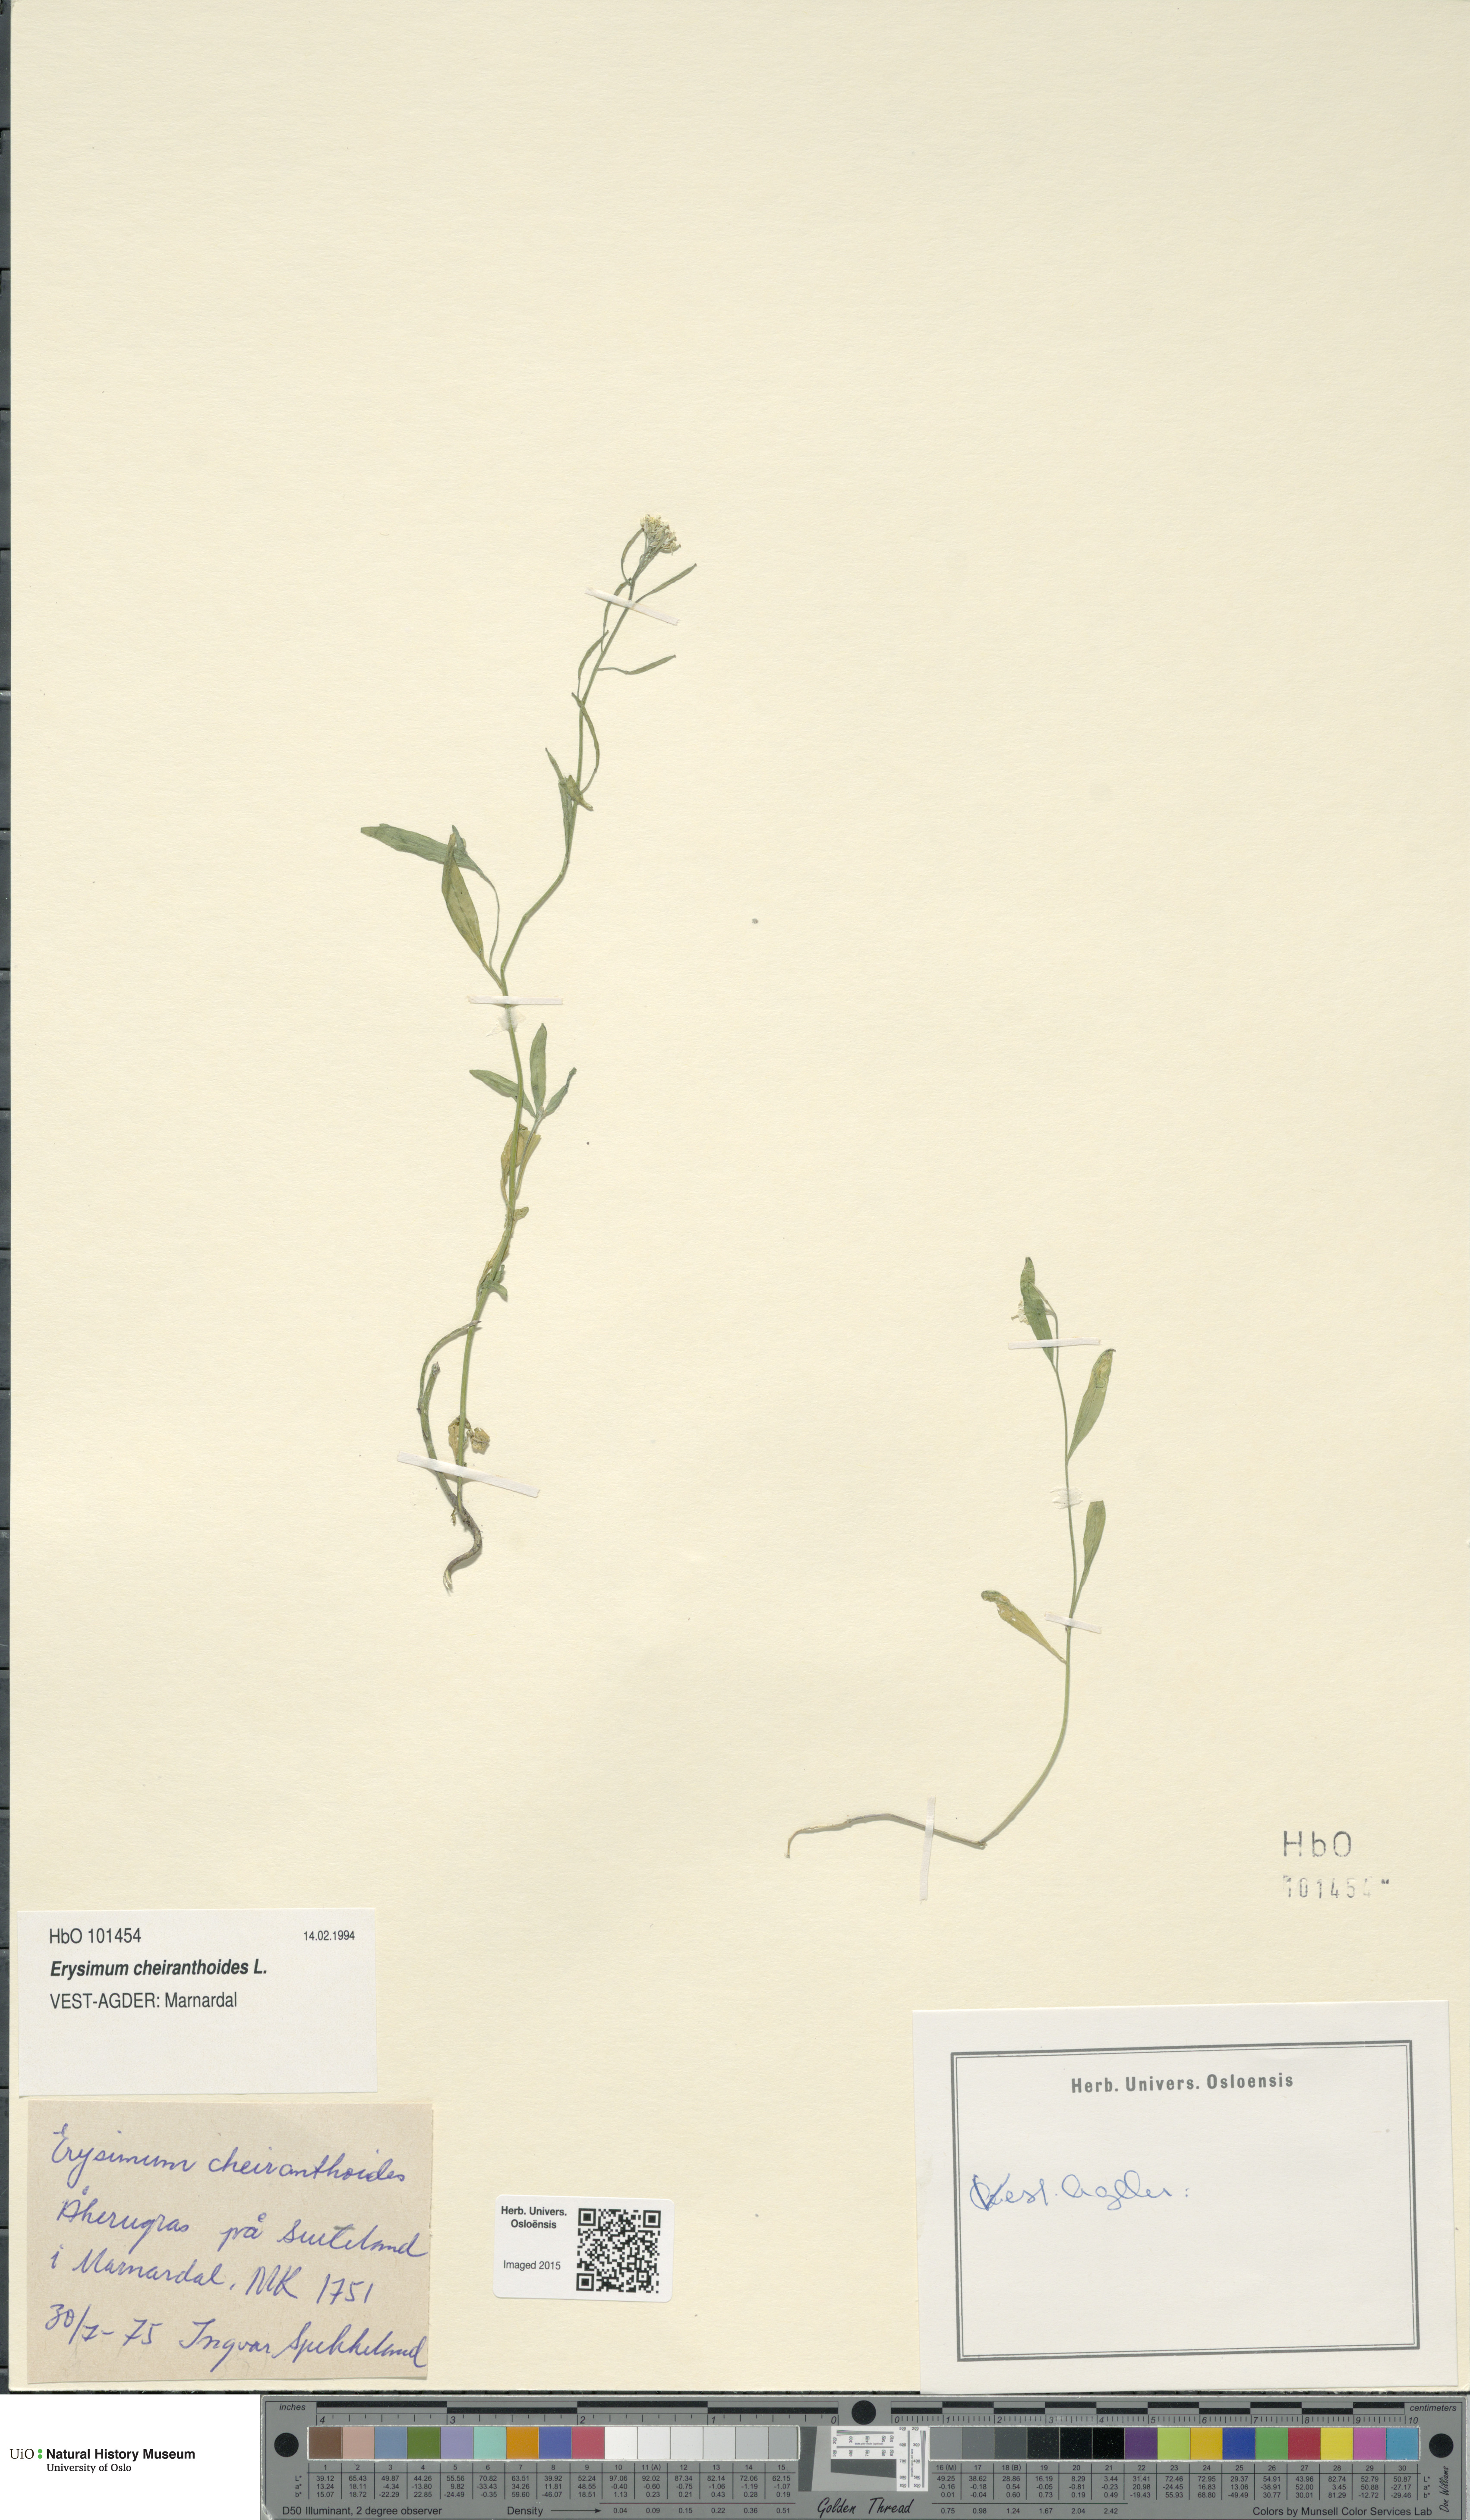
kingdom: Plantae
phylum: Tracheophyta
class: Magnoliopsida
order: Brassicales
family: Brassicaceae
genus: Erysimum
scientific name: Erysimum cheiranthoides
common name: Treacle mustard
